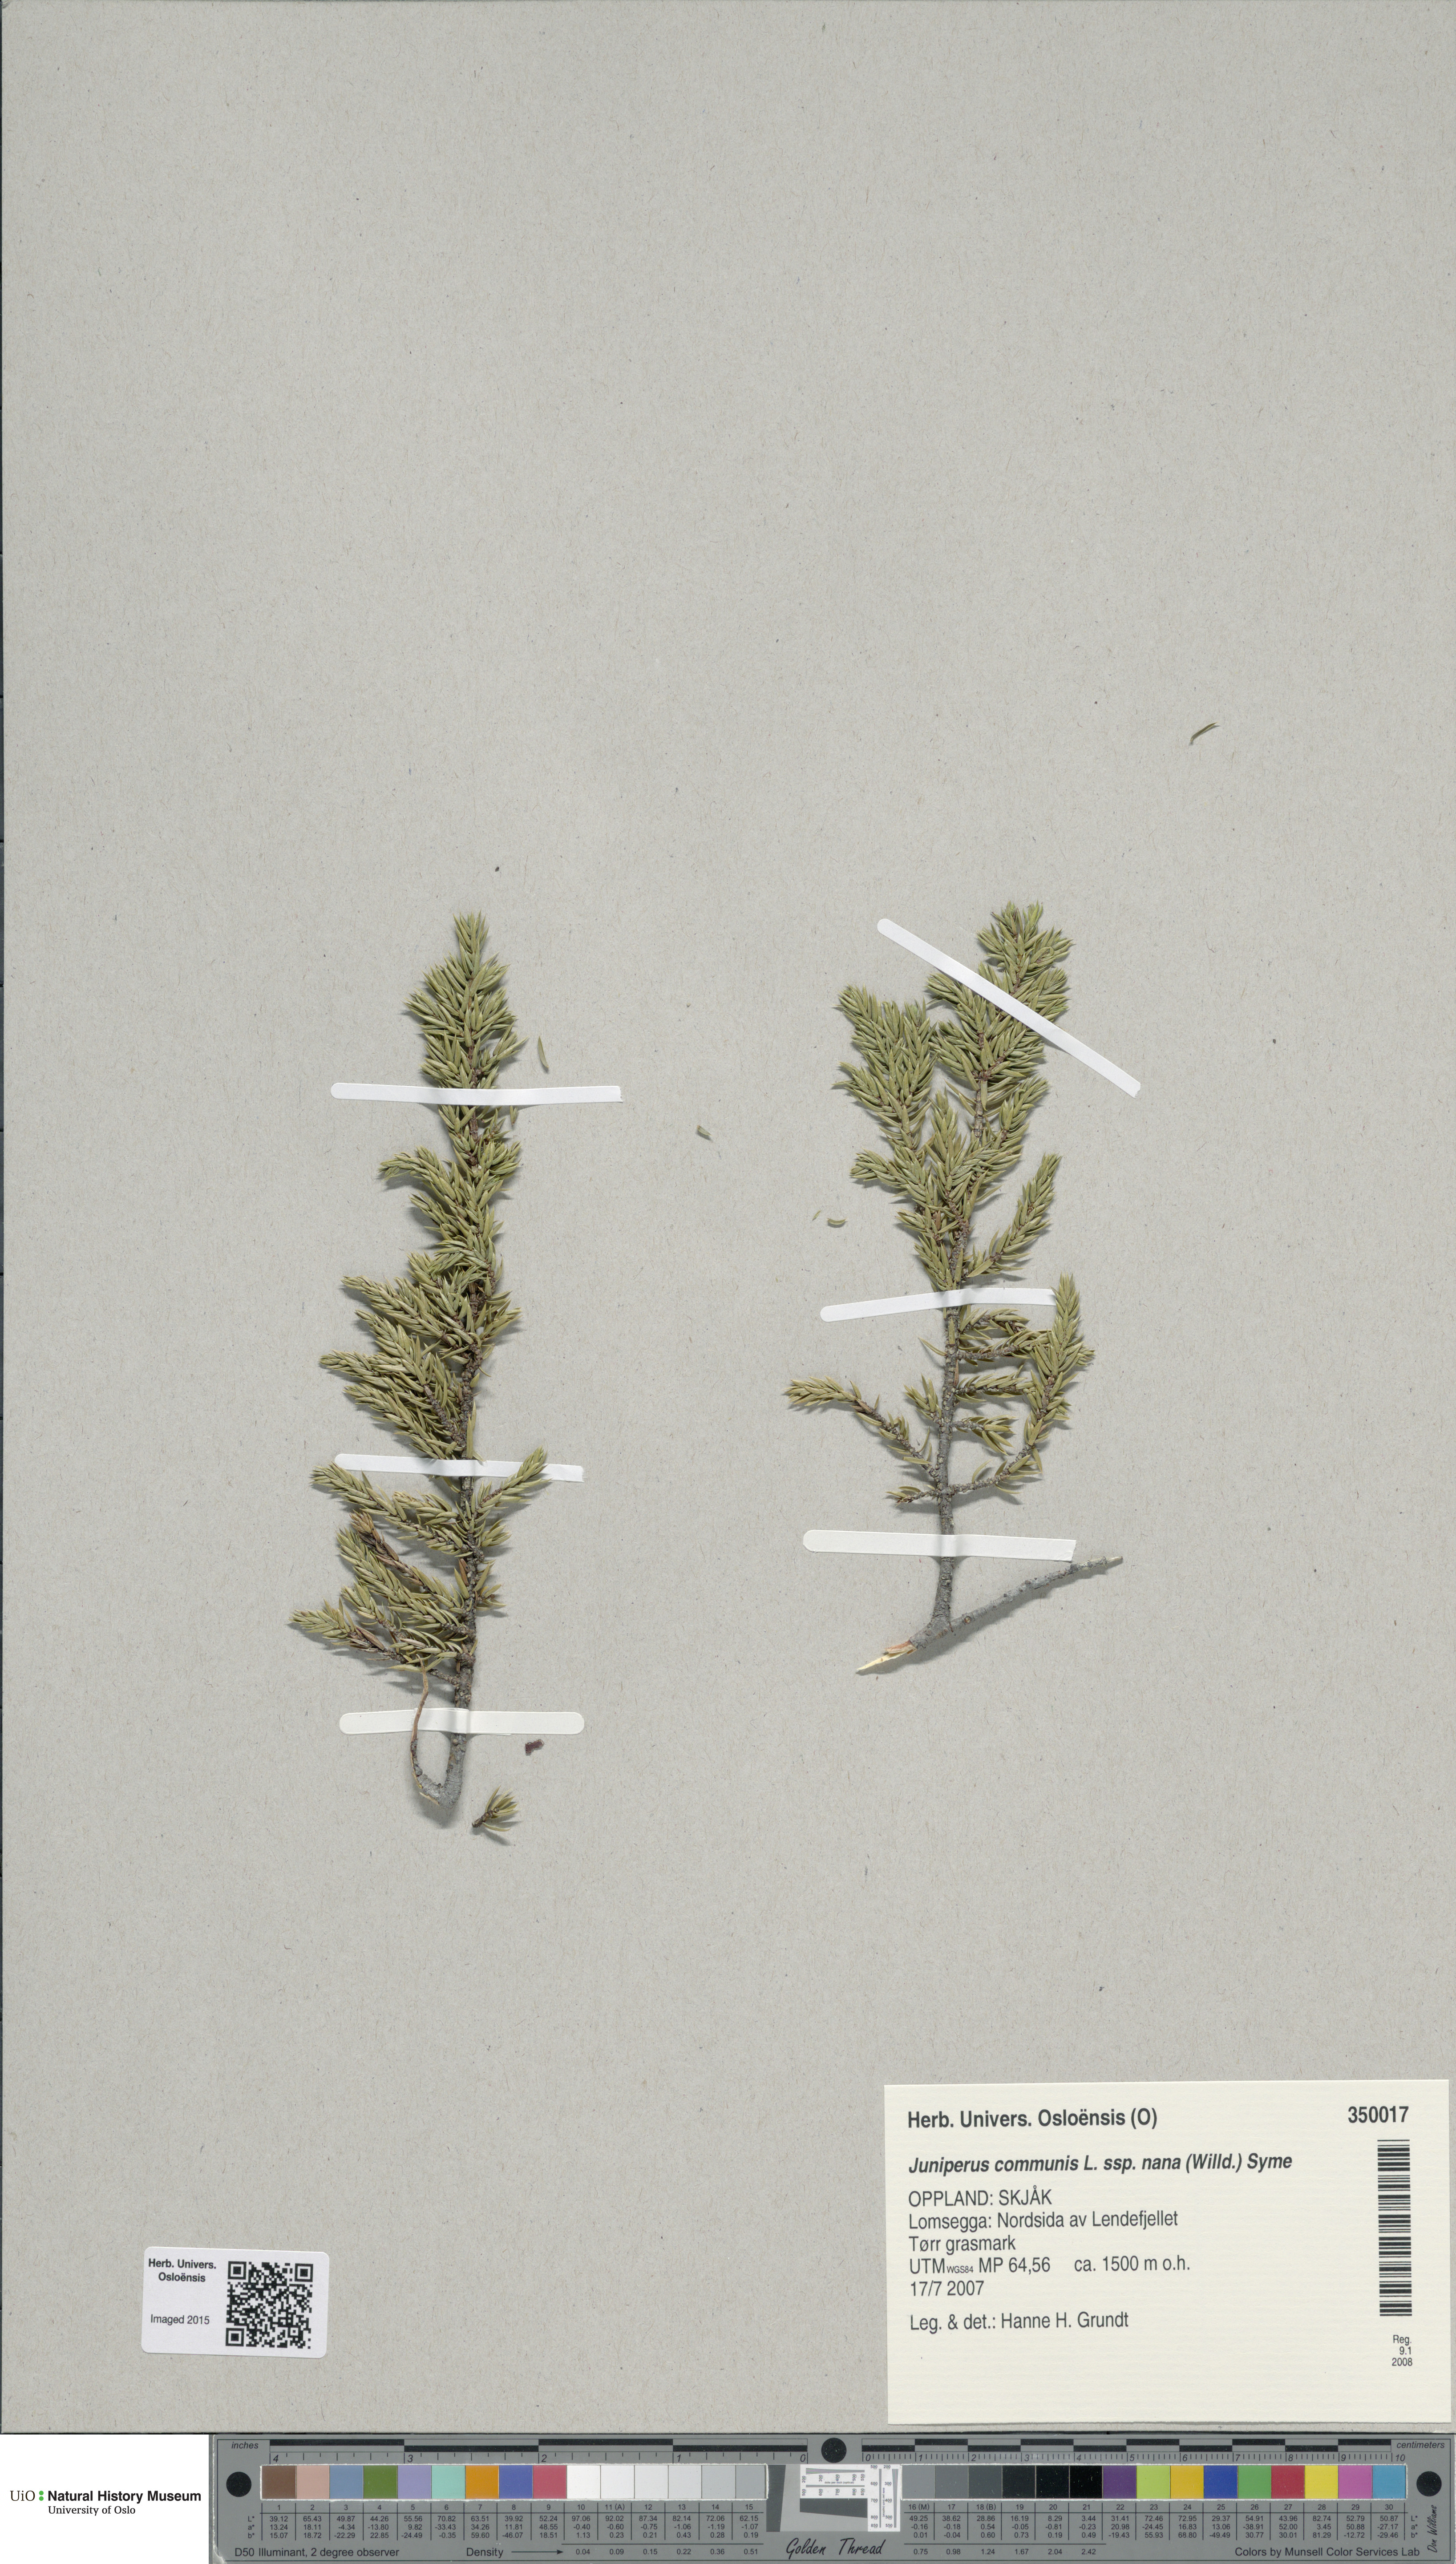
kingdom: Plantae
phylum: Tracheophyta
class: Pinopsida
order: Pinales
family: Cupressaceae
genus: Juniperus
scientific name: Juniperus communis
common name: Common juniper
